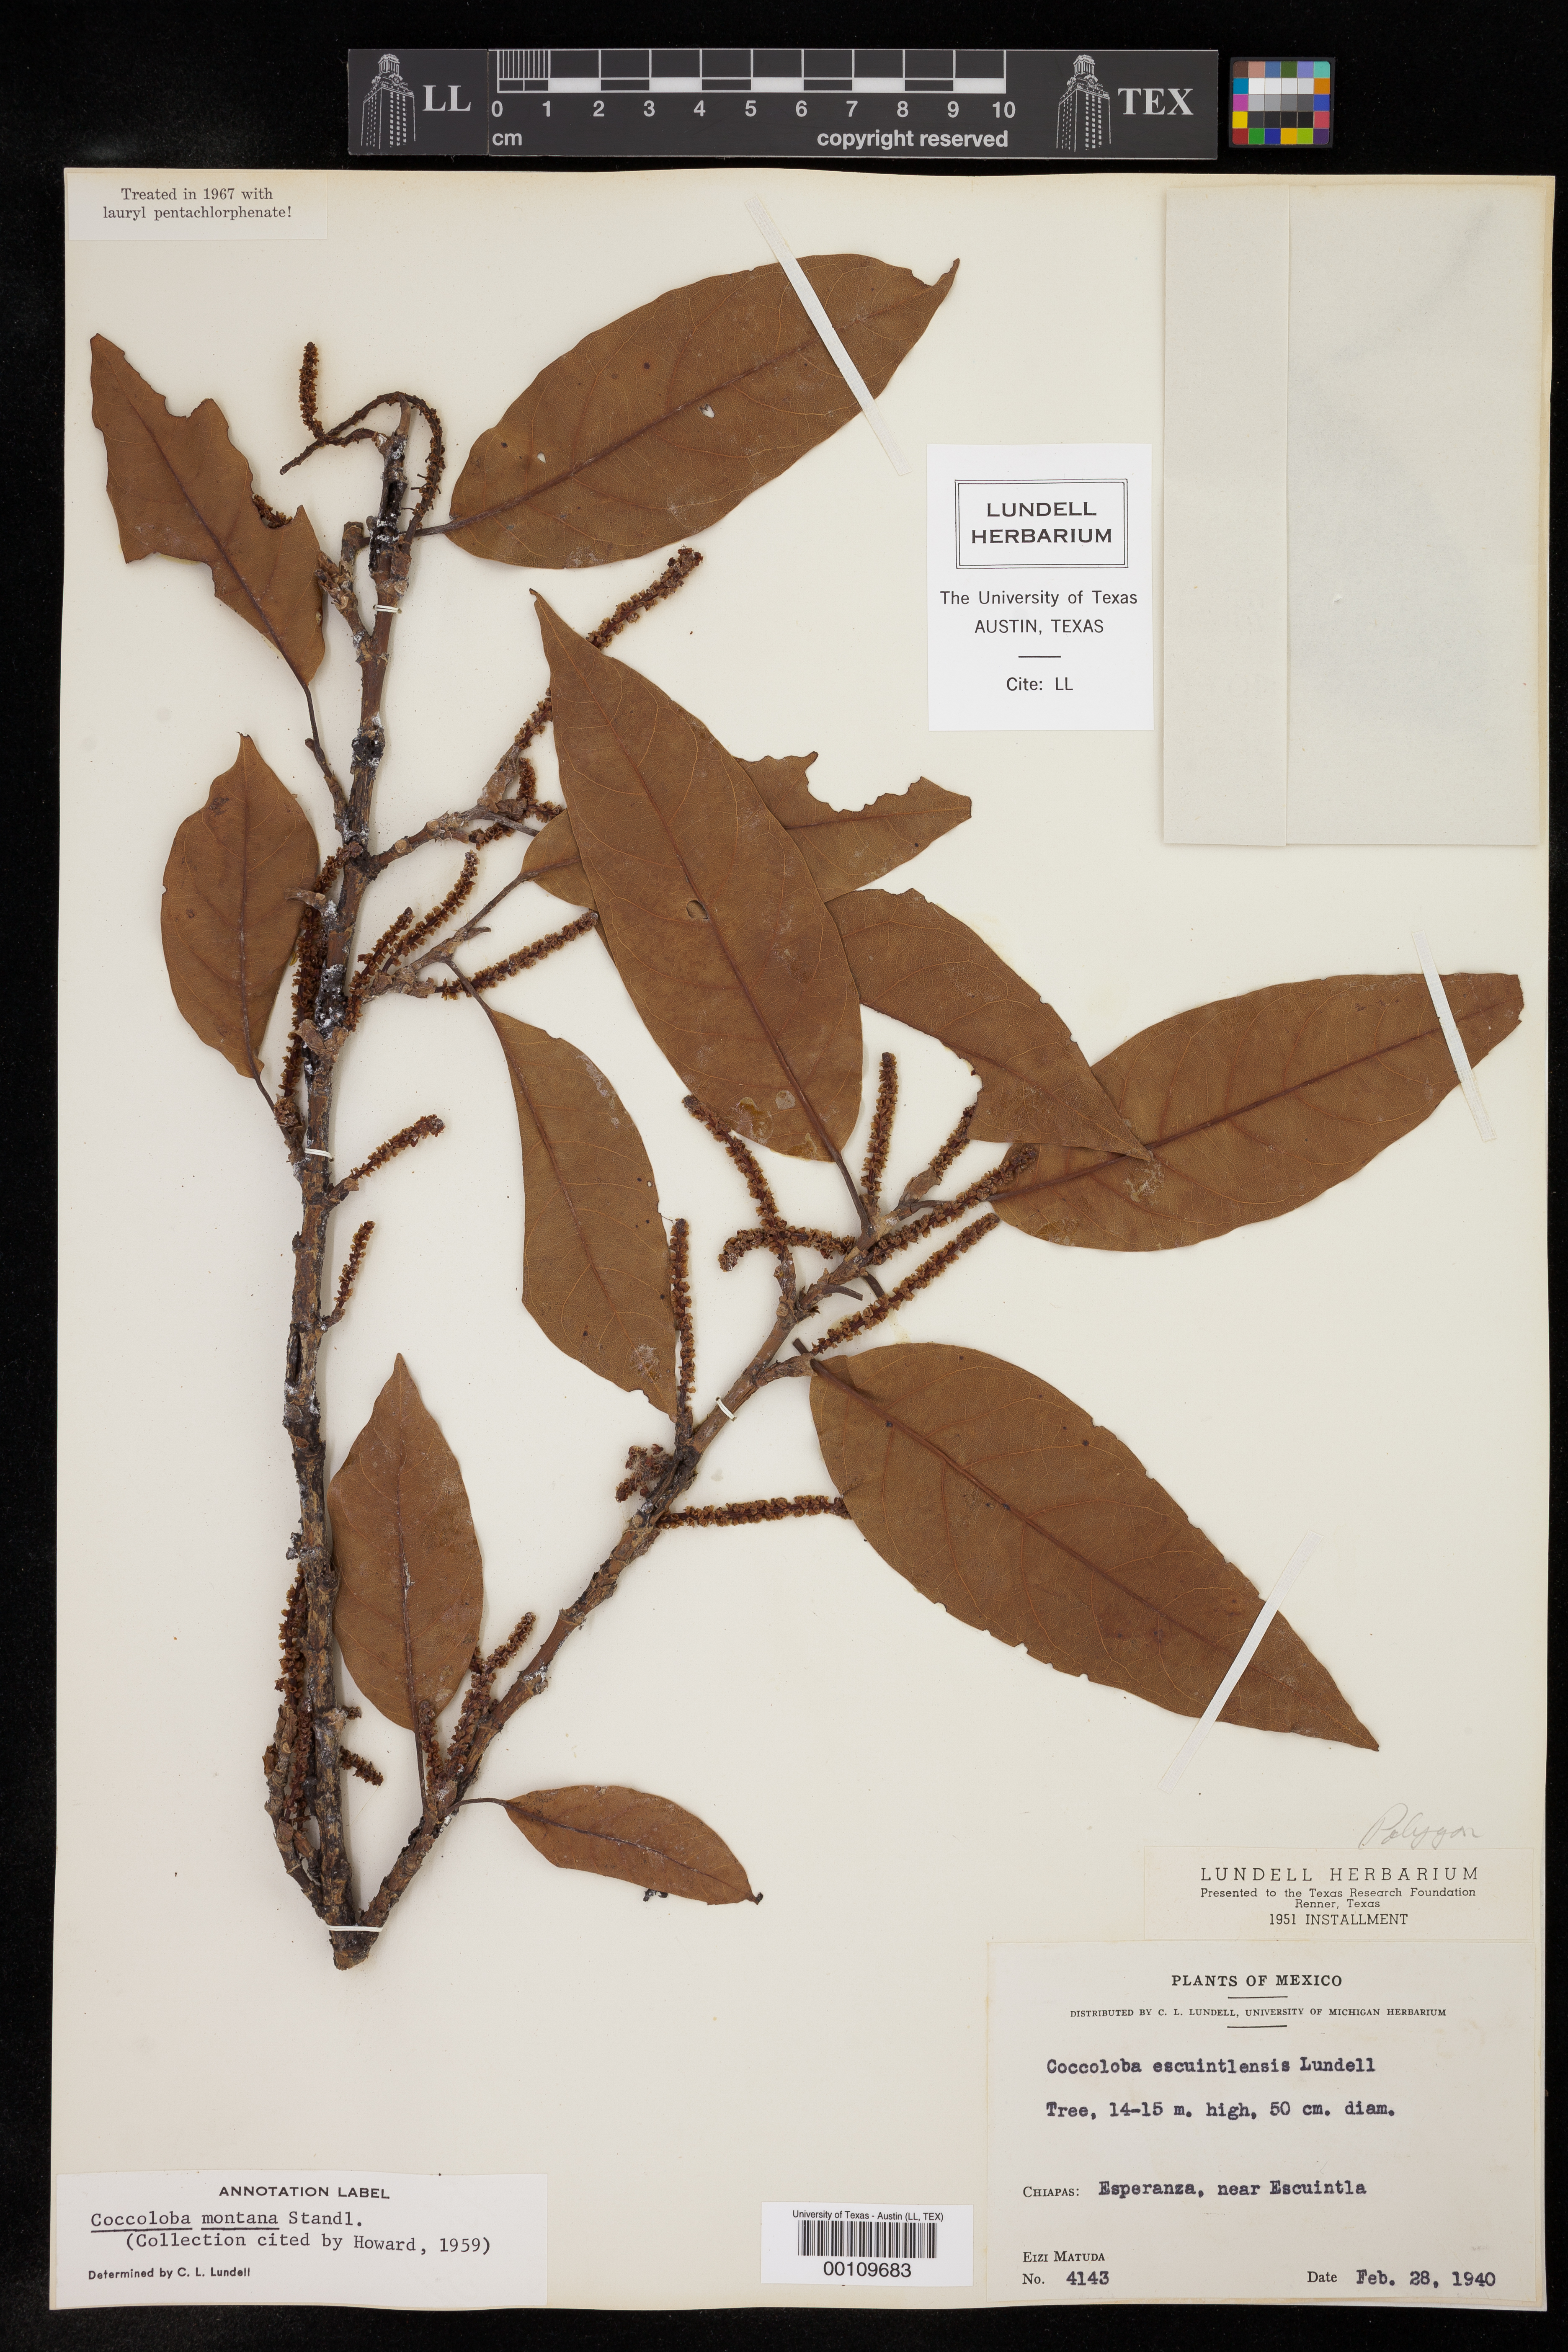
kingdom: Plantae
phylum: Tracheophyta
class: Magnoliopsida
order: Caryophyllales
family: Polygonaceae
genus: Coccoloba
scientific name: Coccoloba montana
